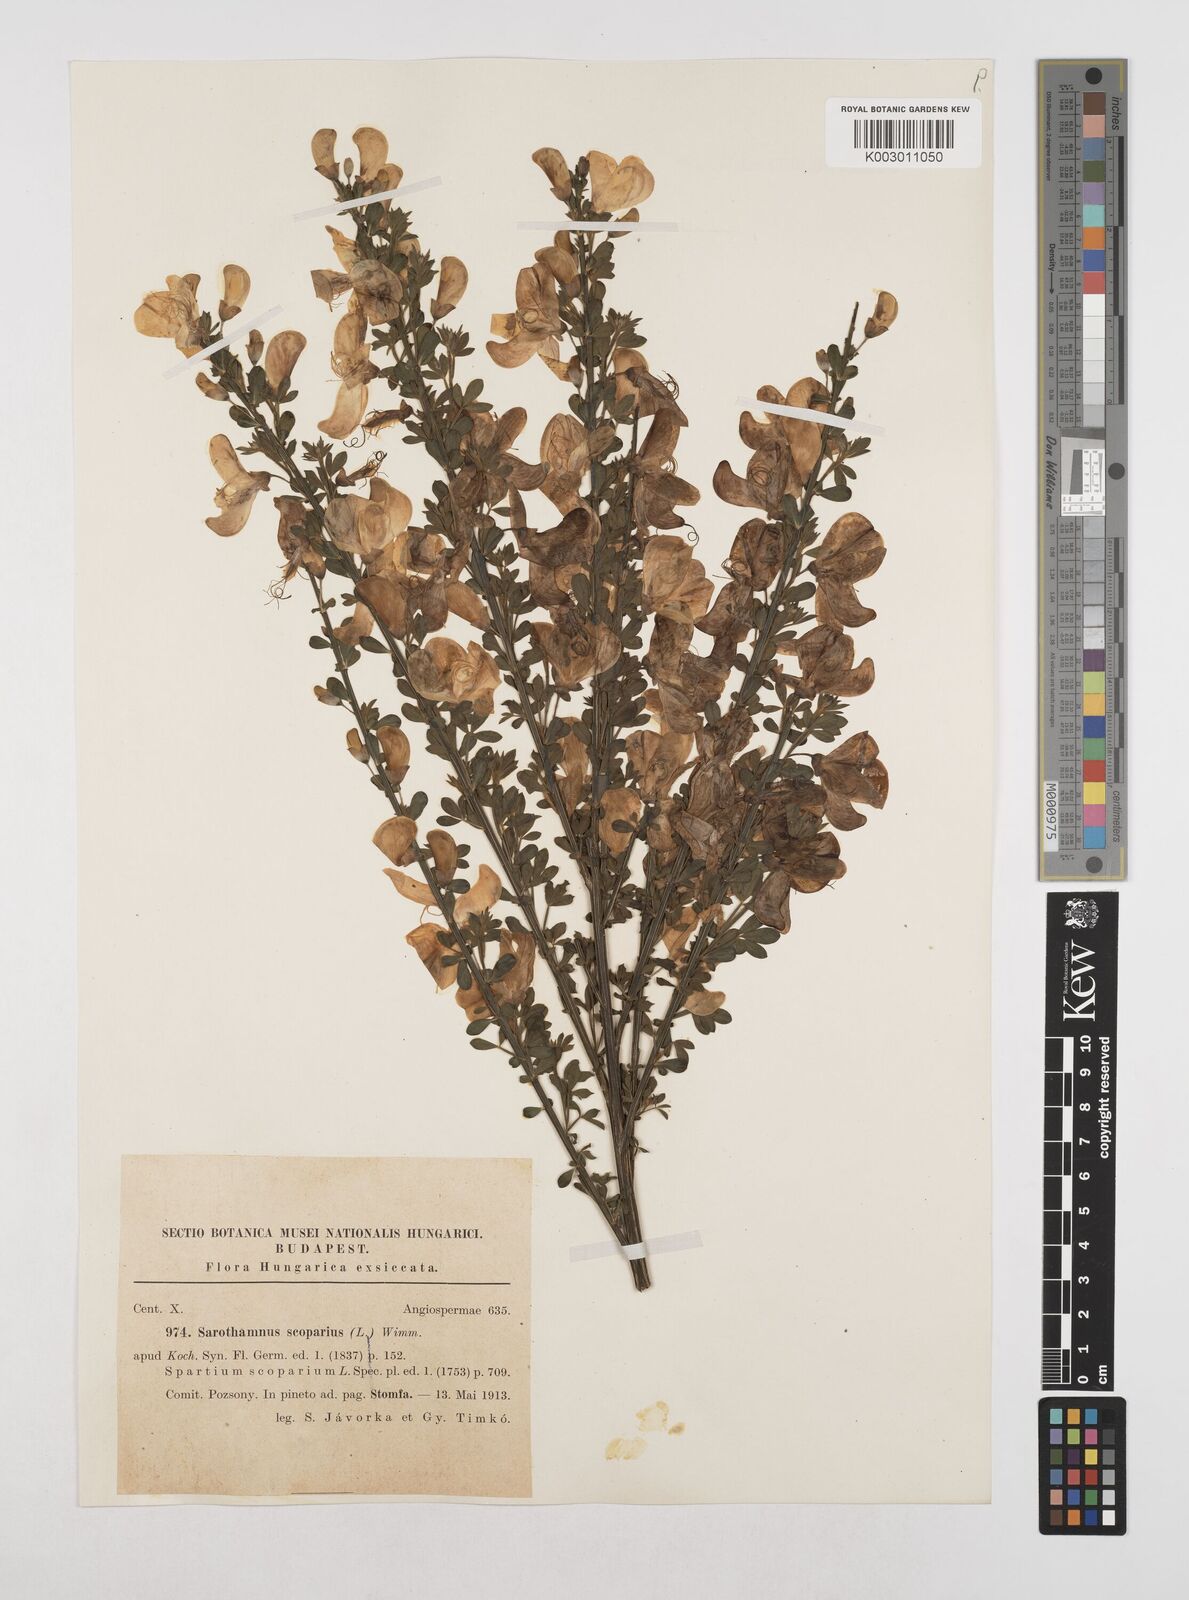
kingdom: Plantae
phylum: Tracheophyta
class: Magnoliopsida
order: Fabales
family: Fabaceae
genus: Cytisus
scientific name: Cytisus scoparius
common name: Scotch broom
